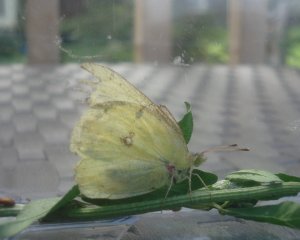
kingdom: Animalia
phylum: Arthropoda
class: Insecta
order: Lepidoptera
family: Pieridae
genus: Colias
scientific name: Colias philodice
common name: Clouded Sulphur
